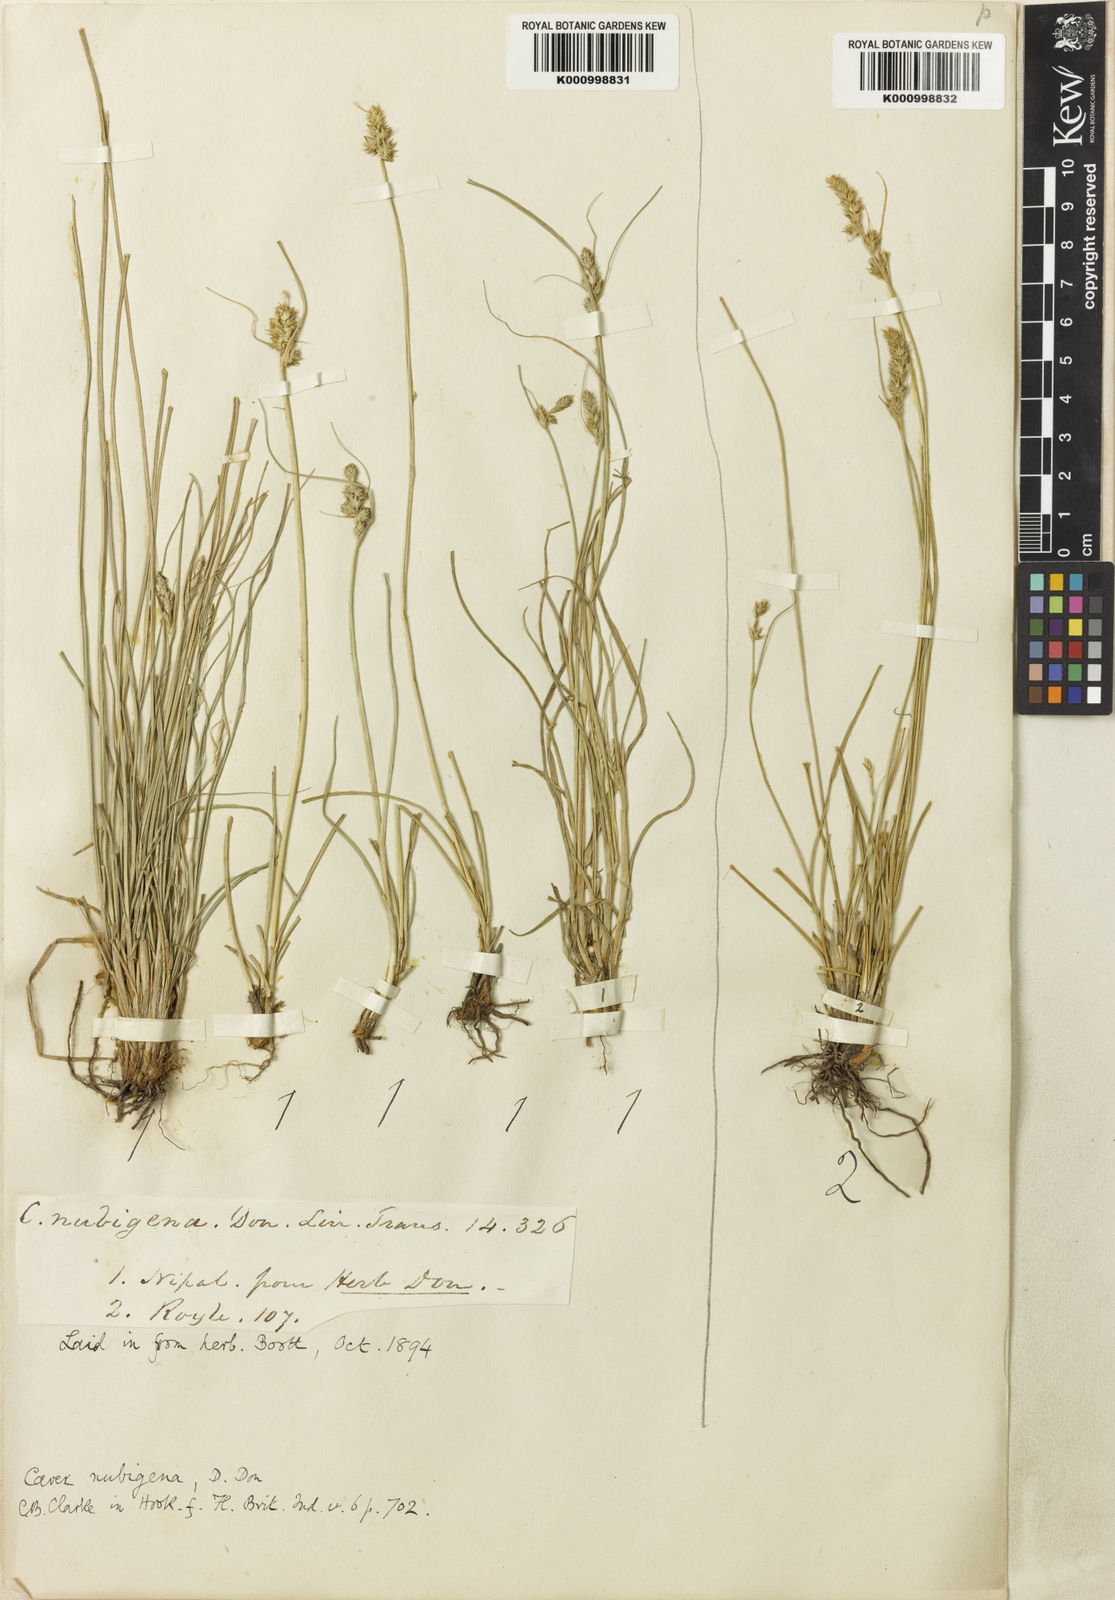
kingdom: Plantae
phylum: Tracheophyta
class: Liliopsida
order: Poales
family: Cyperaceae
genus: Carex
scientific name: Carex nubigena
